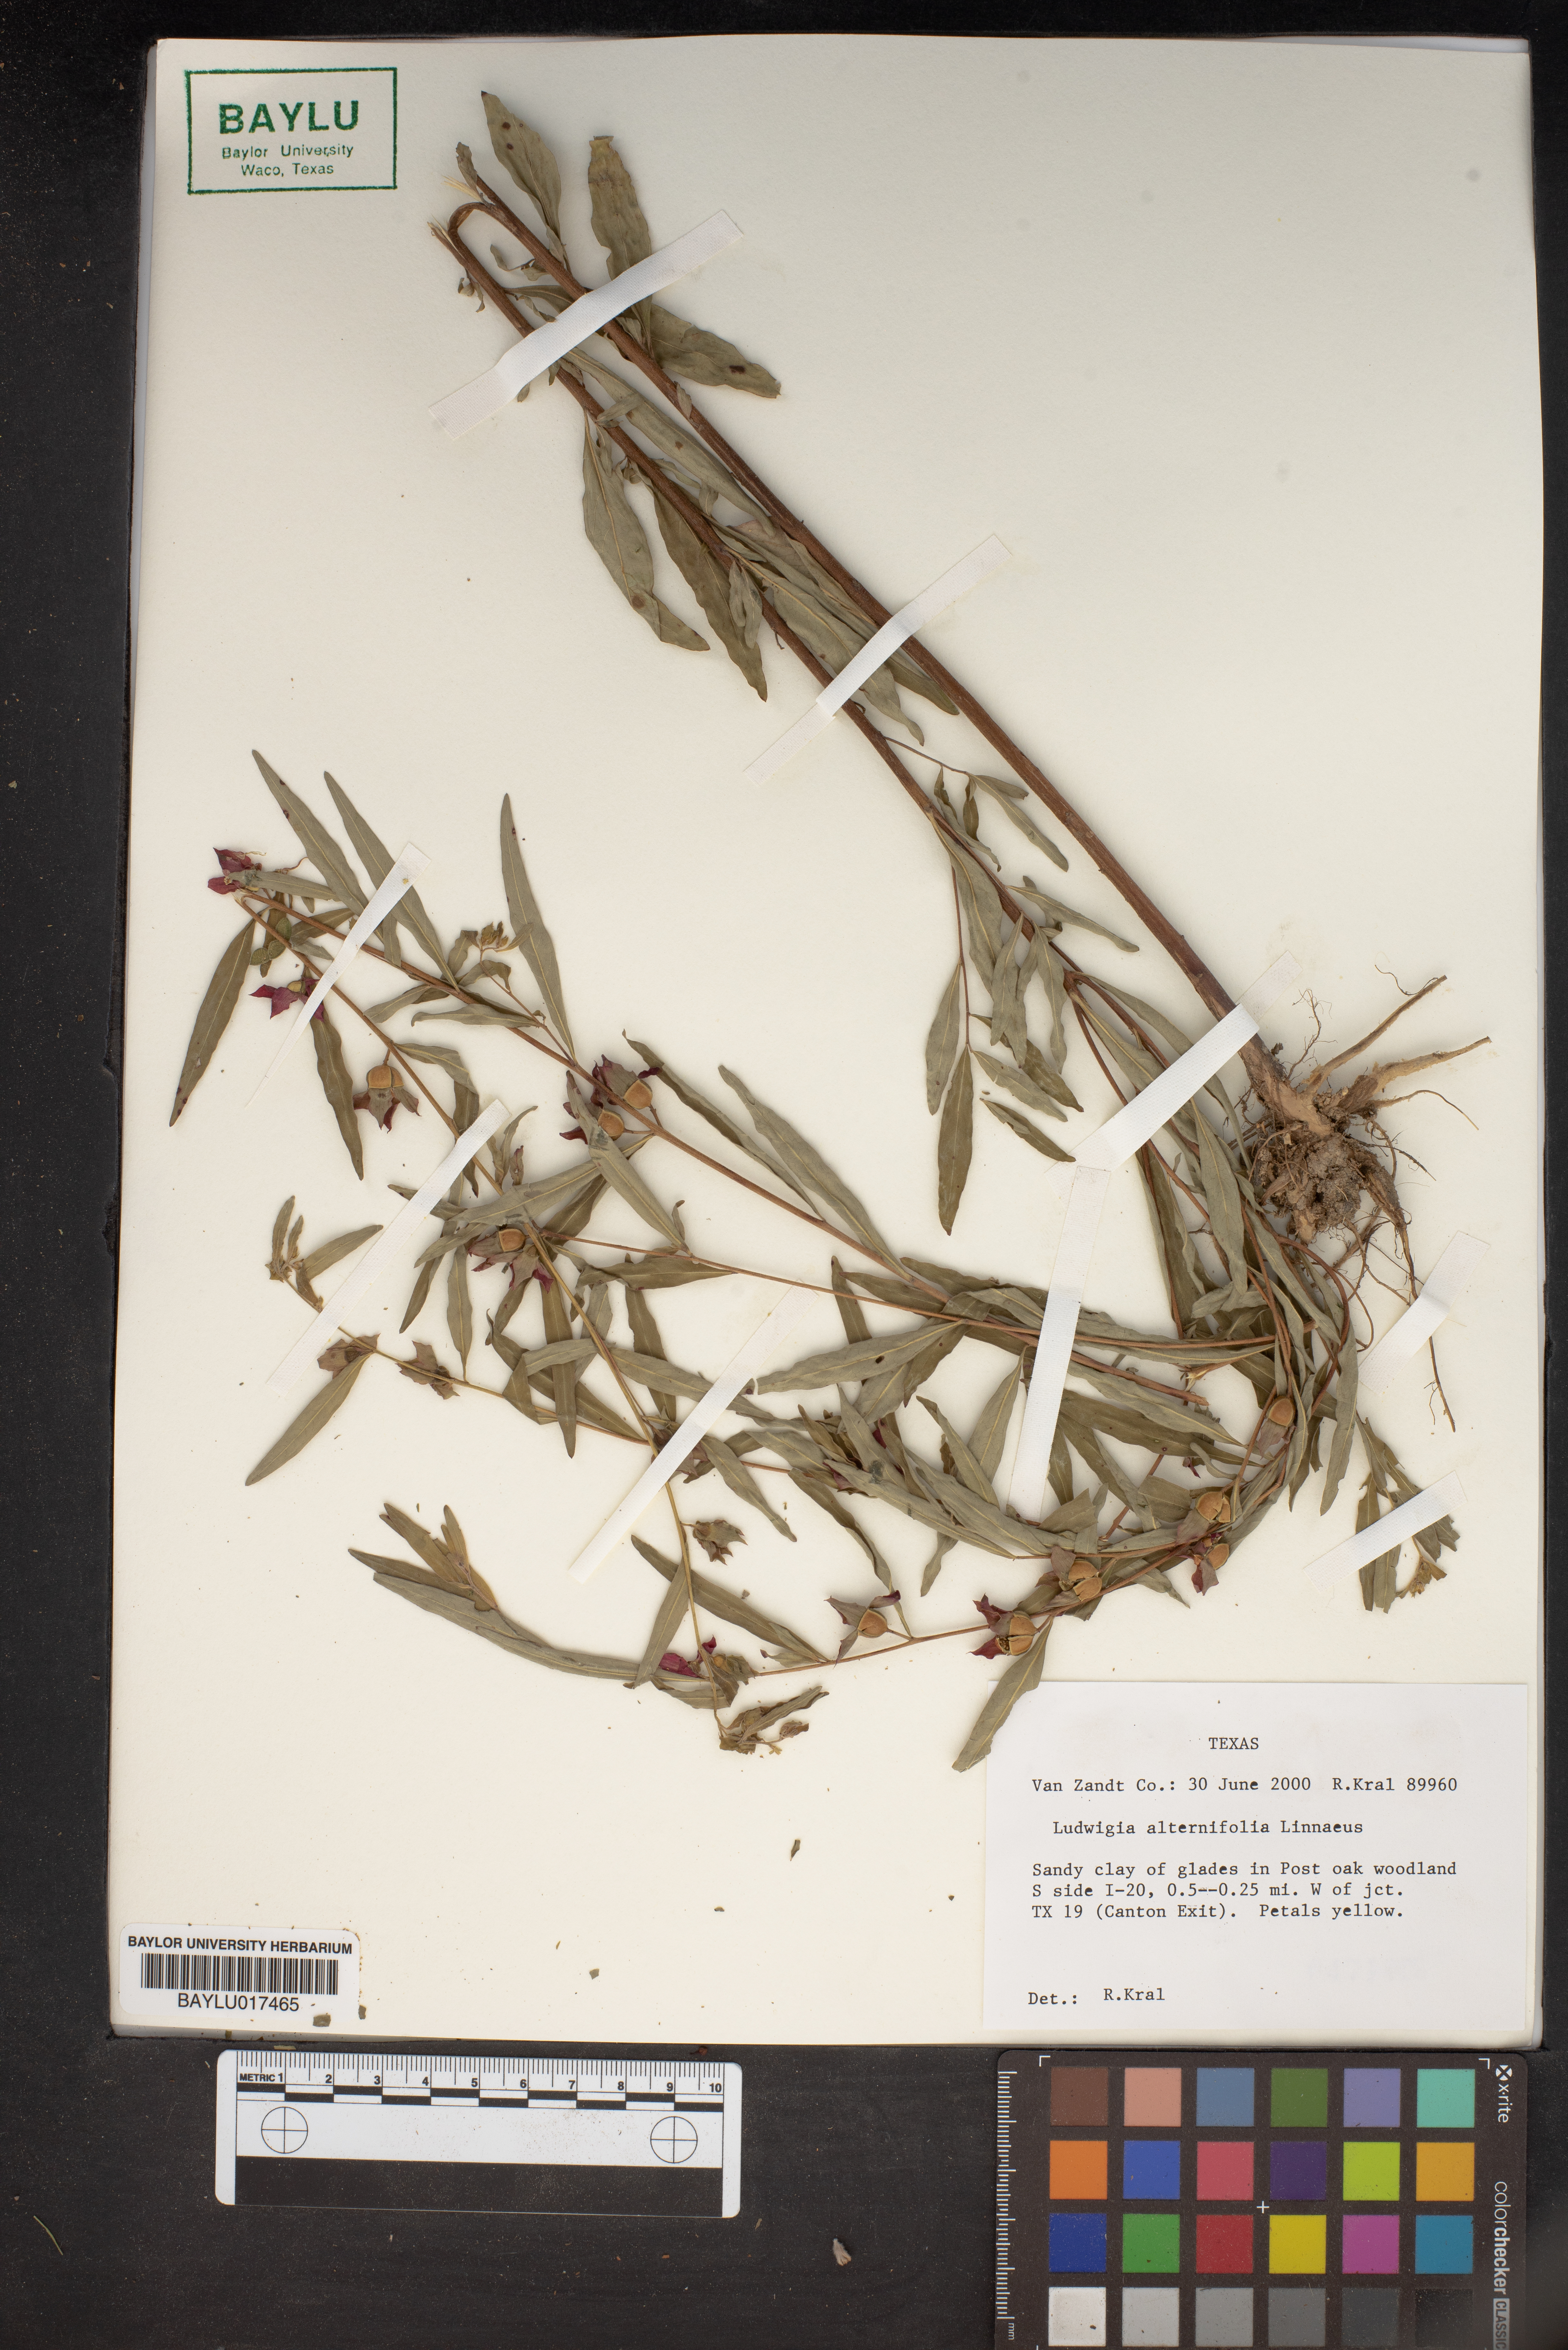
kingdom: Plantae
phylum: Tracheophyta
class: Magnoliopsida
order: Myrtales
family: Onagraceae
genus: Ludwigia
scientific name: Ludwigia alternifolia
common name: Rattlebox
